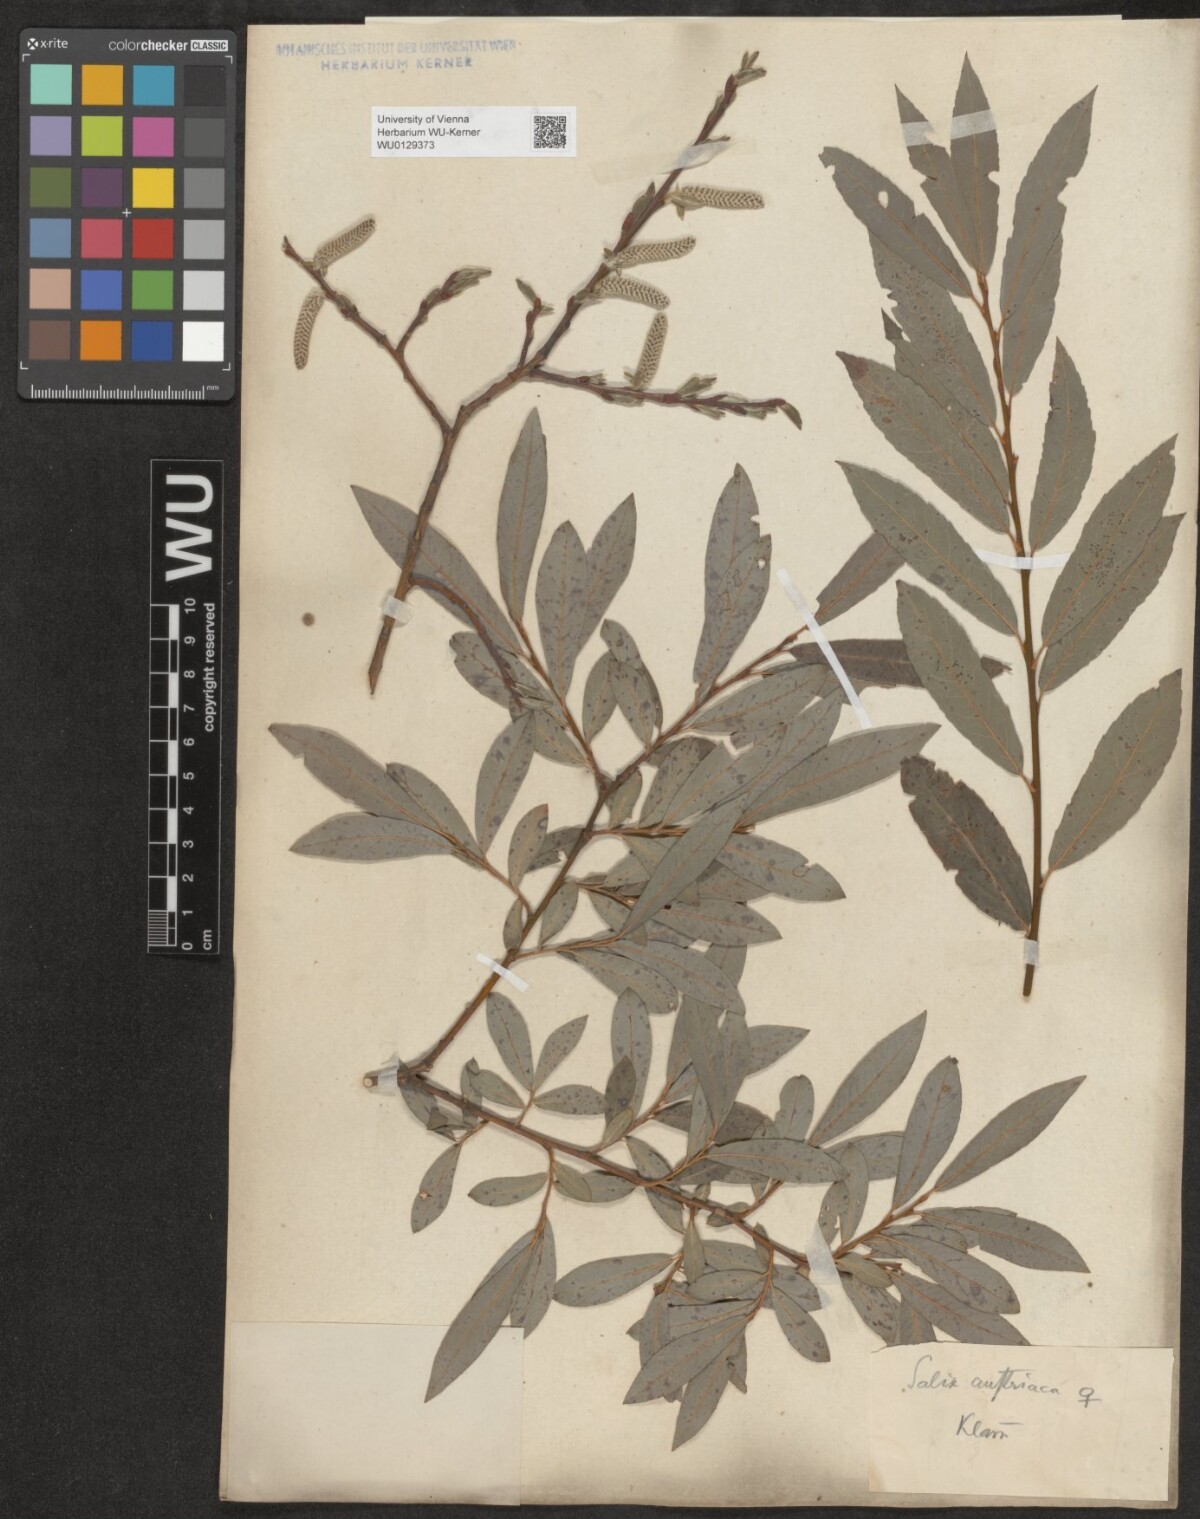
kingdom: Plantae
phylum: Tracheophyta
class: Magnoliopsida
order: Malpighiales
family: Salicaceae
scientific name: Salicaceae
